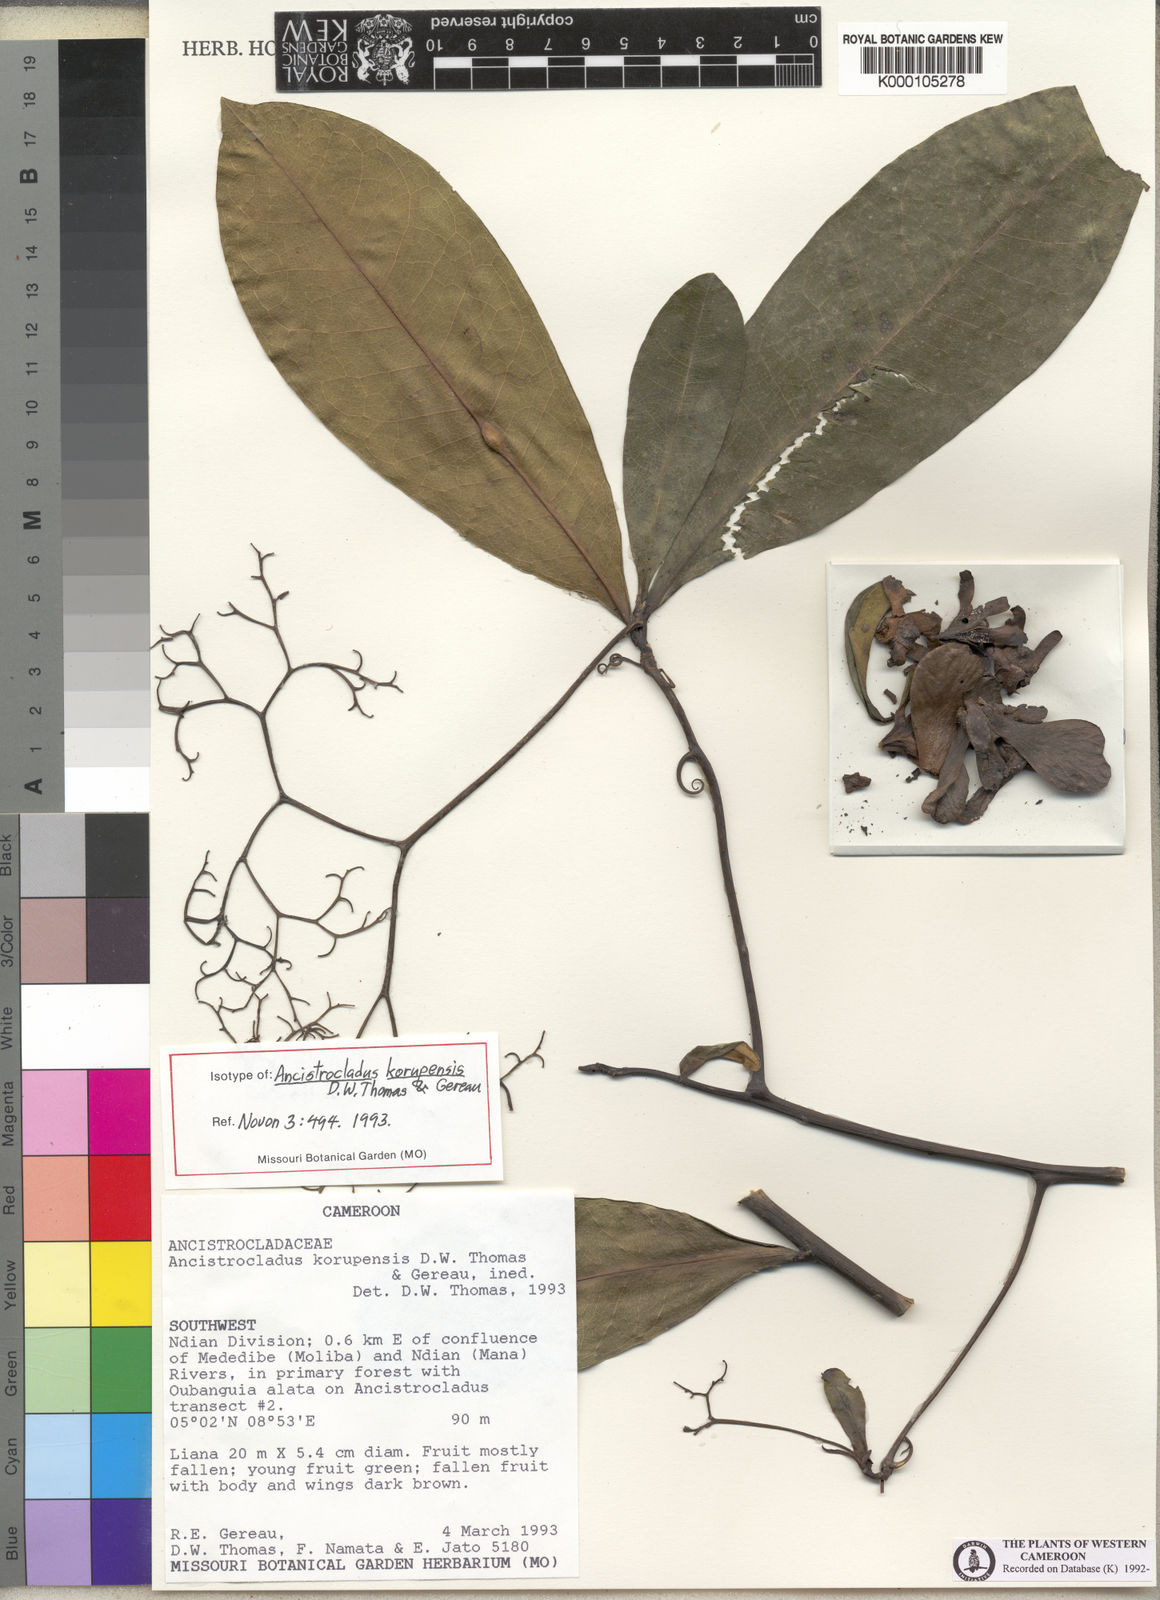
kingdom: Plantae
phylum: Tracheophyta
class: Magnoliopsida
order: Caryophyllales
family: Ancistrocladaceae
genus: Ancistrocladus
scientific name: Ancistrocladus korupensis
